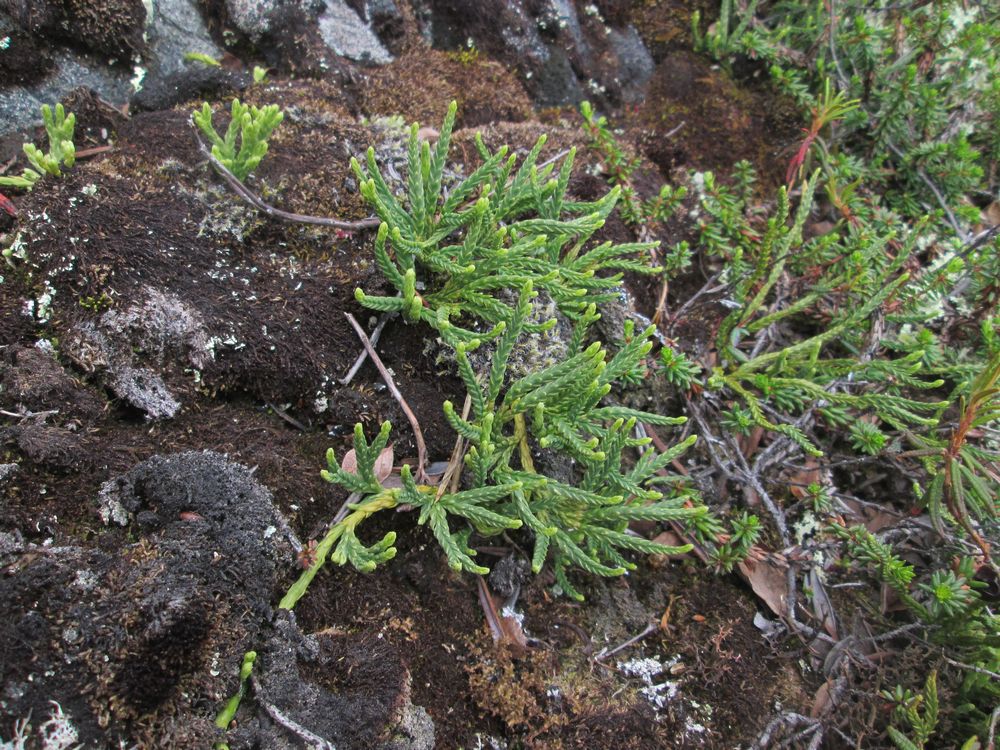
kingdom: Plantae
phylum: Tracheophyta
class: Lycopodiopsida
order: Lycopodiales
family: Lycopodiaceae
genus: Diphasiastrum
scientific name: Diphasiastrum alpinum
